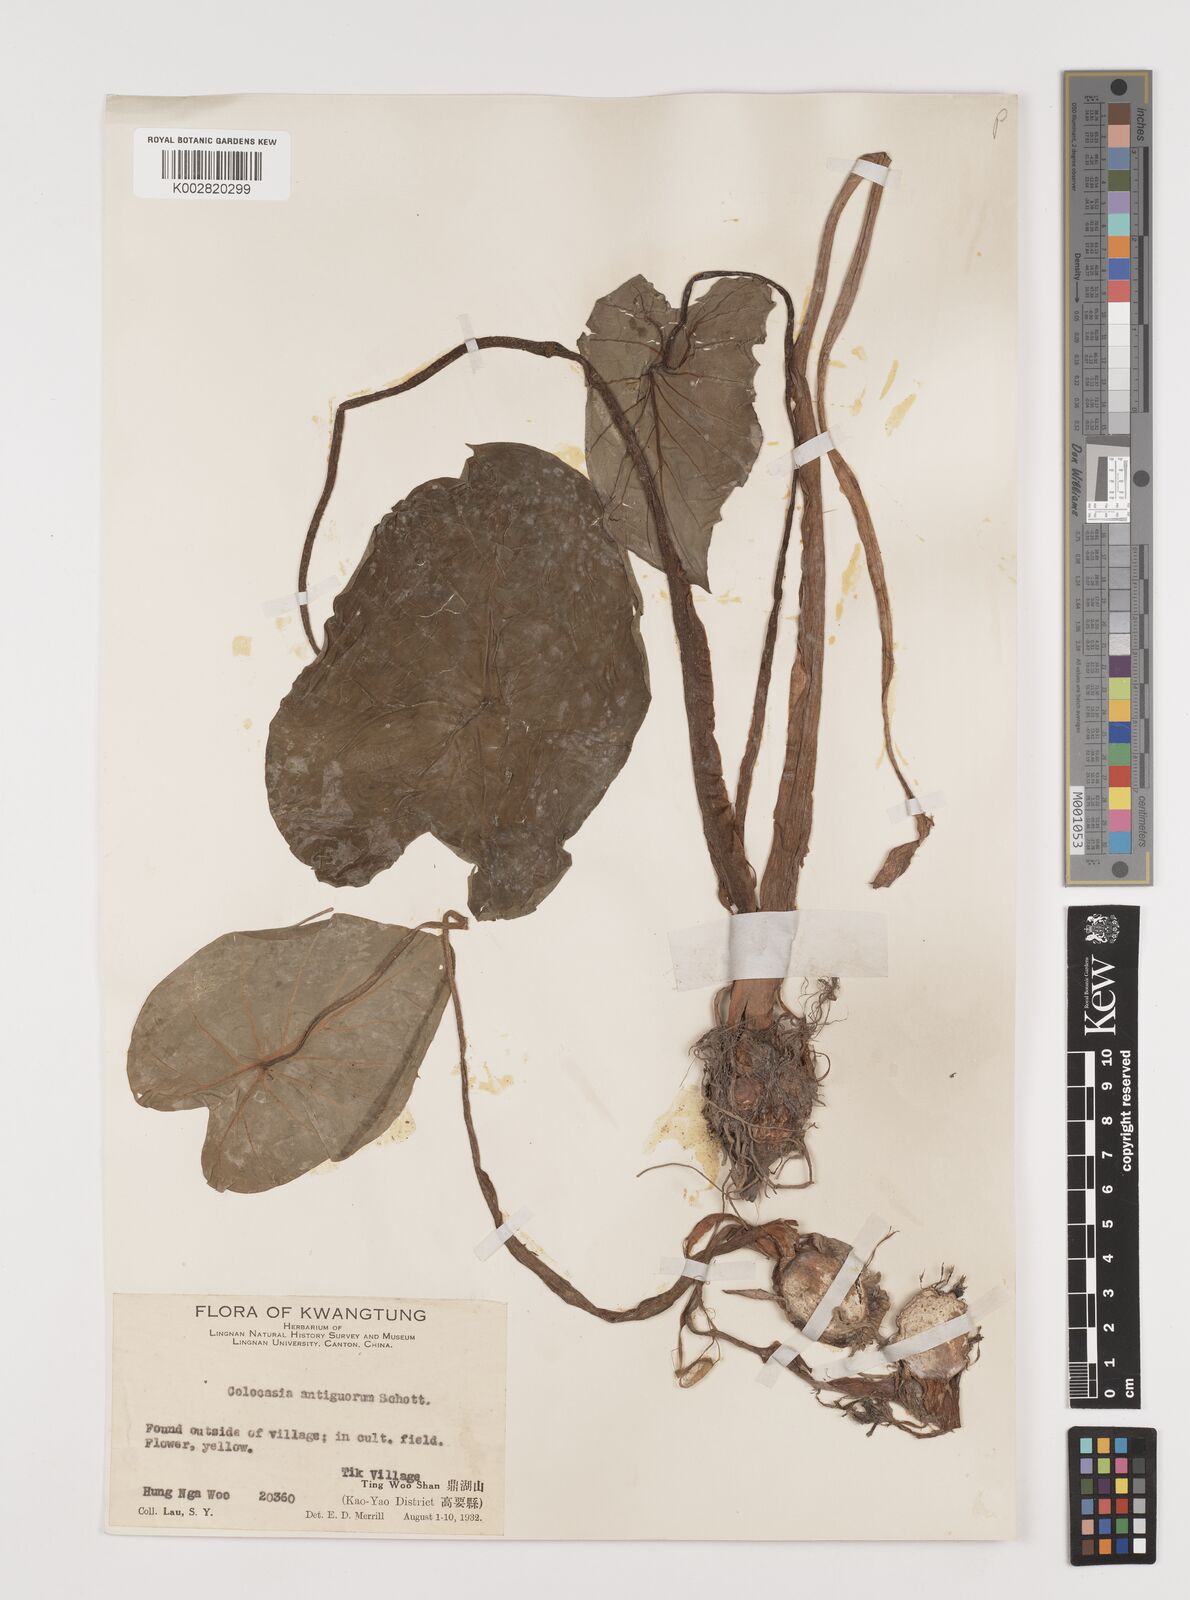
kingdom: Plantae
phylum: Tracheophyta
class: Liliopsida
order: Alismatales
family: Araceae
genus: Colocasia
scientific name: Colocasia esculenta
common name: Taro
